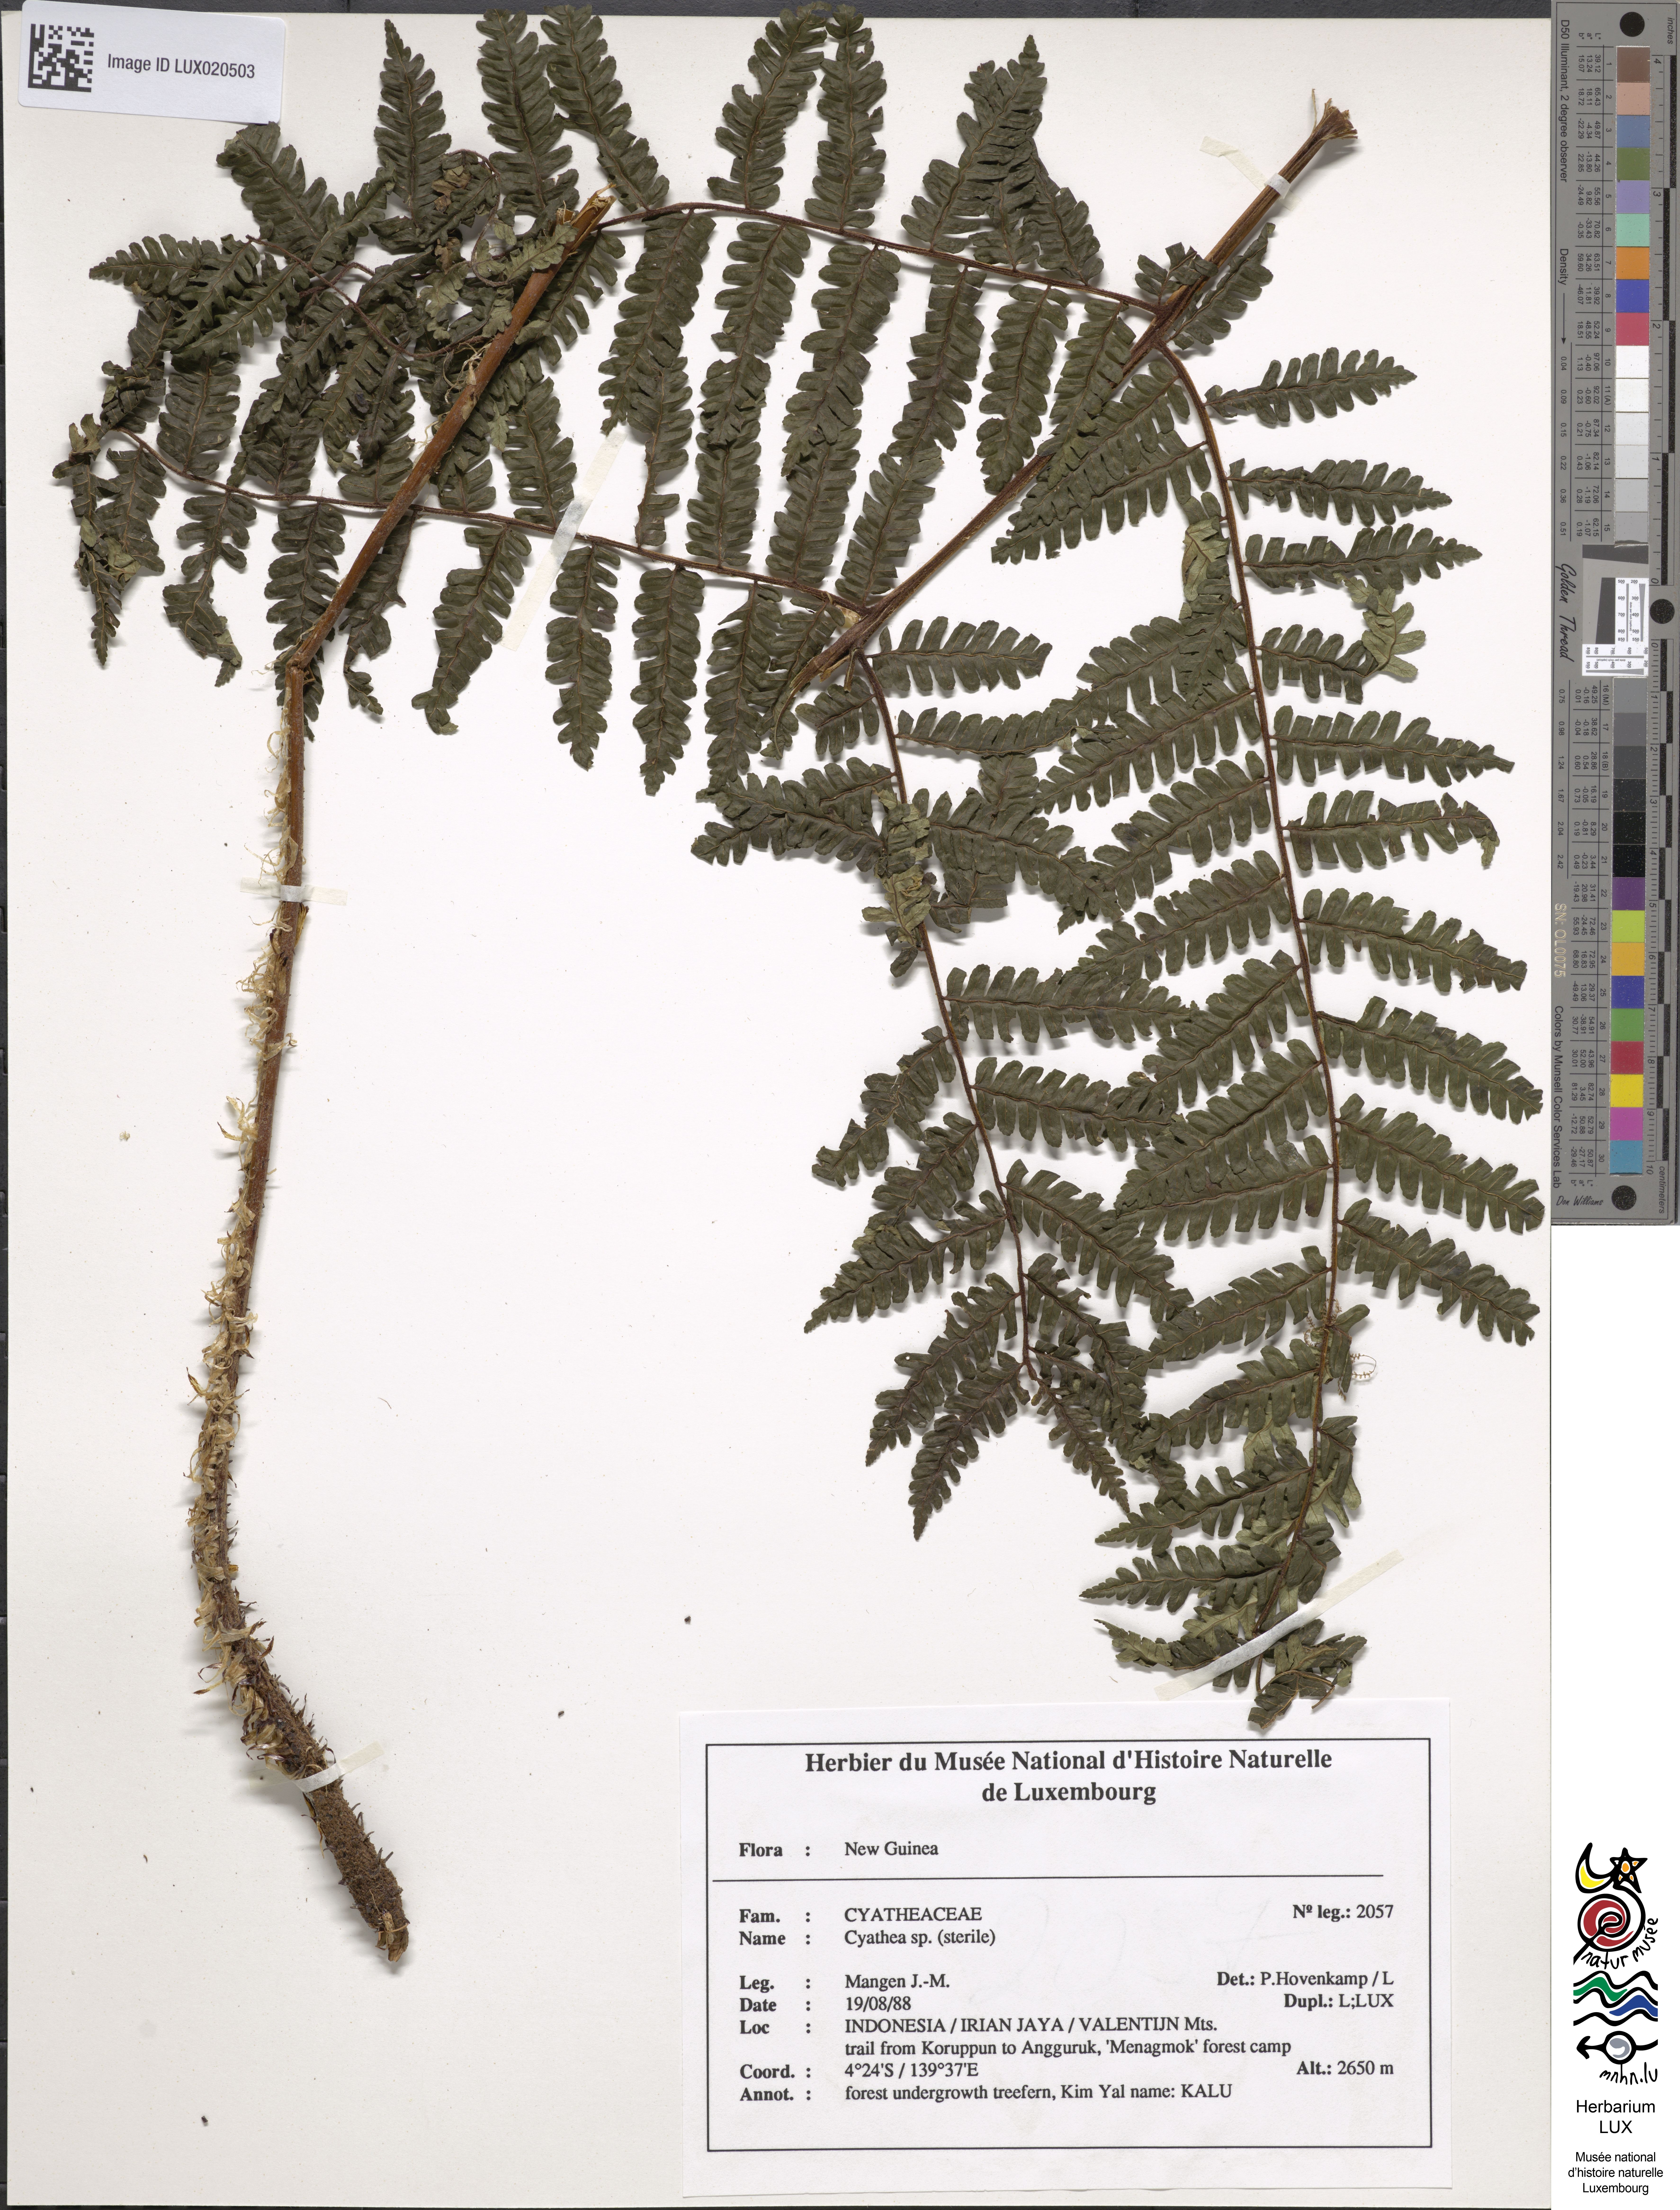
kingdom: Plantae
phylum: Tracheophyta
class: Polypodiopsida
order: Cyatheales
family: Cyatheaceae
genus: Cyathea
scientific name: Cyathea
